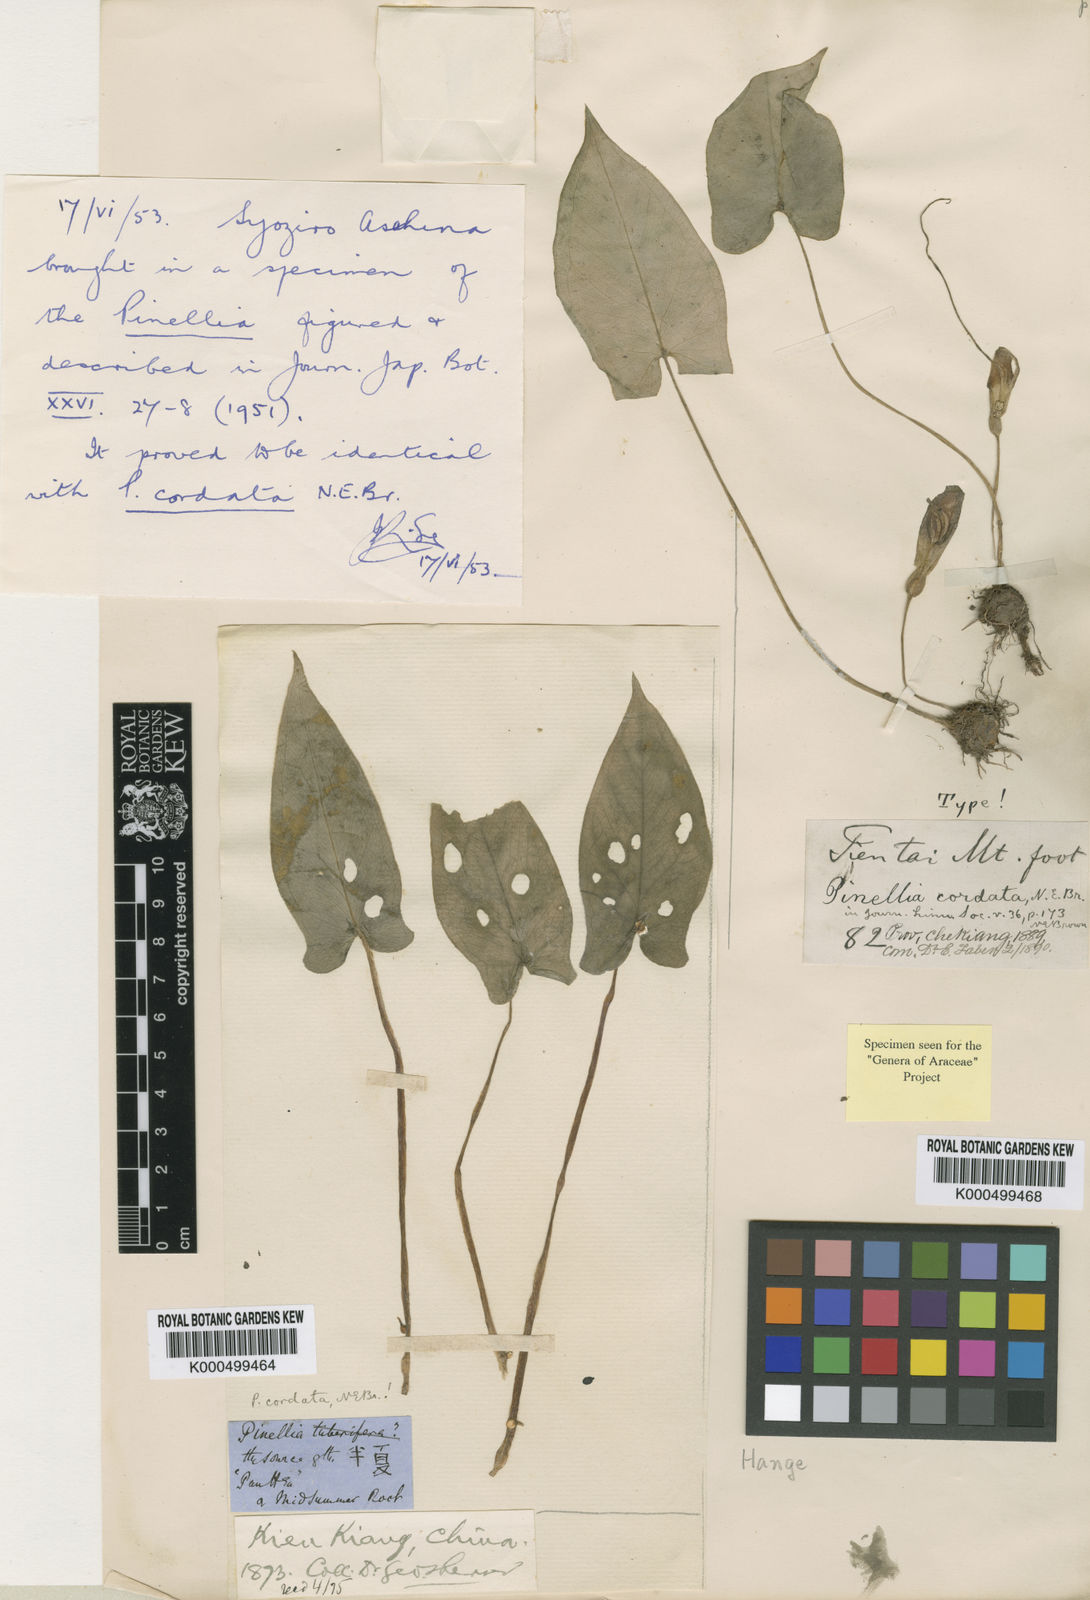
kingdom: Plantae
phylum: Tracheophyta
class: Liliopsida
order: Alismatales
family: Araceae
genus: Pinellia
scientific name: Pinellia cordata
